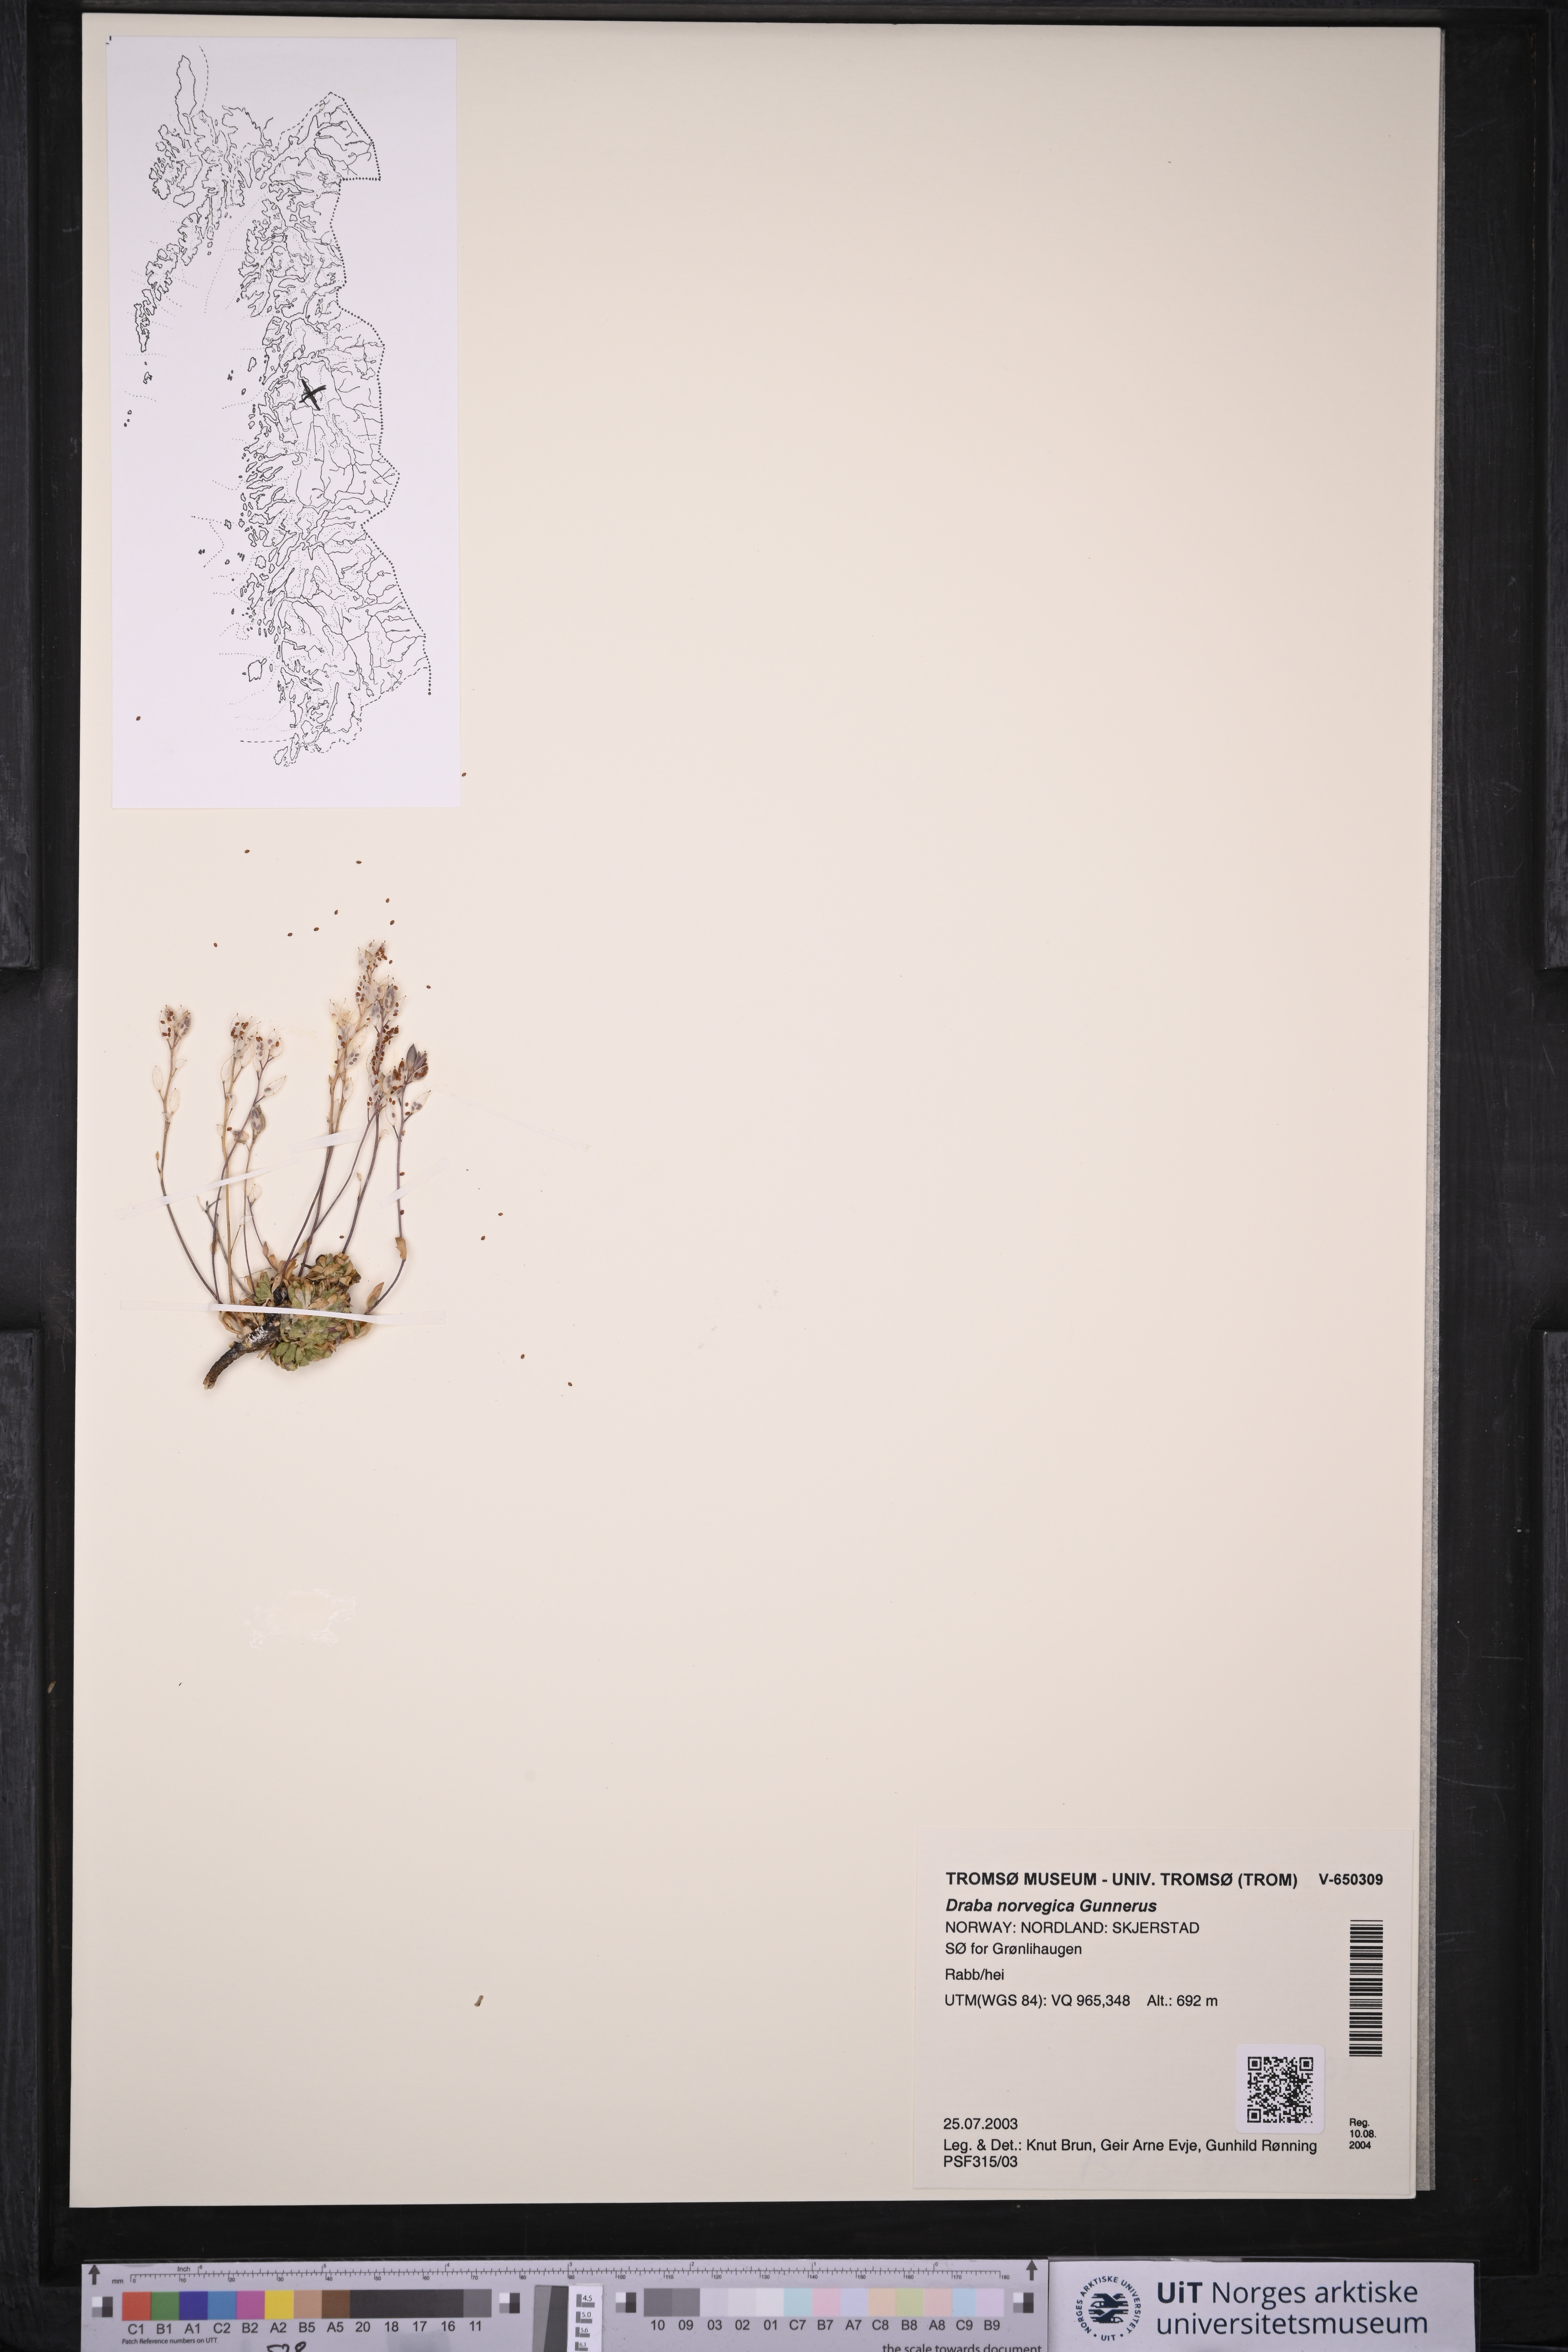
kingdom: Plantae
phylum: Tracheophyta
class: Magnoliopsida
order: Brassicales
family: Brassicaceae
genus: Draba
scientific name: Draba norvegica
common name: Rock whitlowgrass
